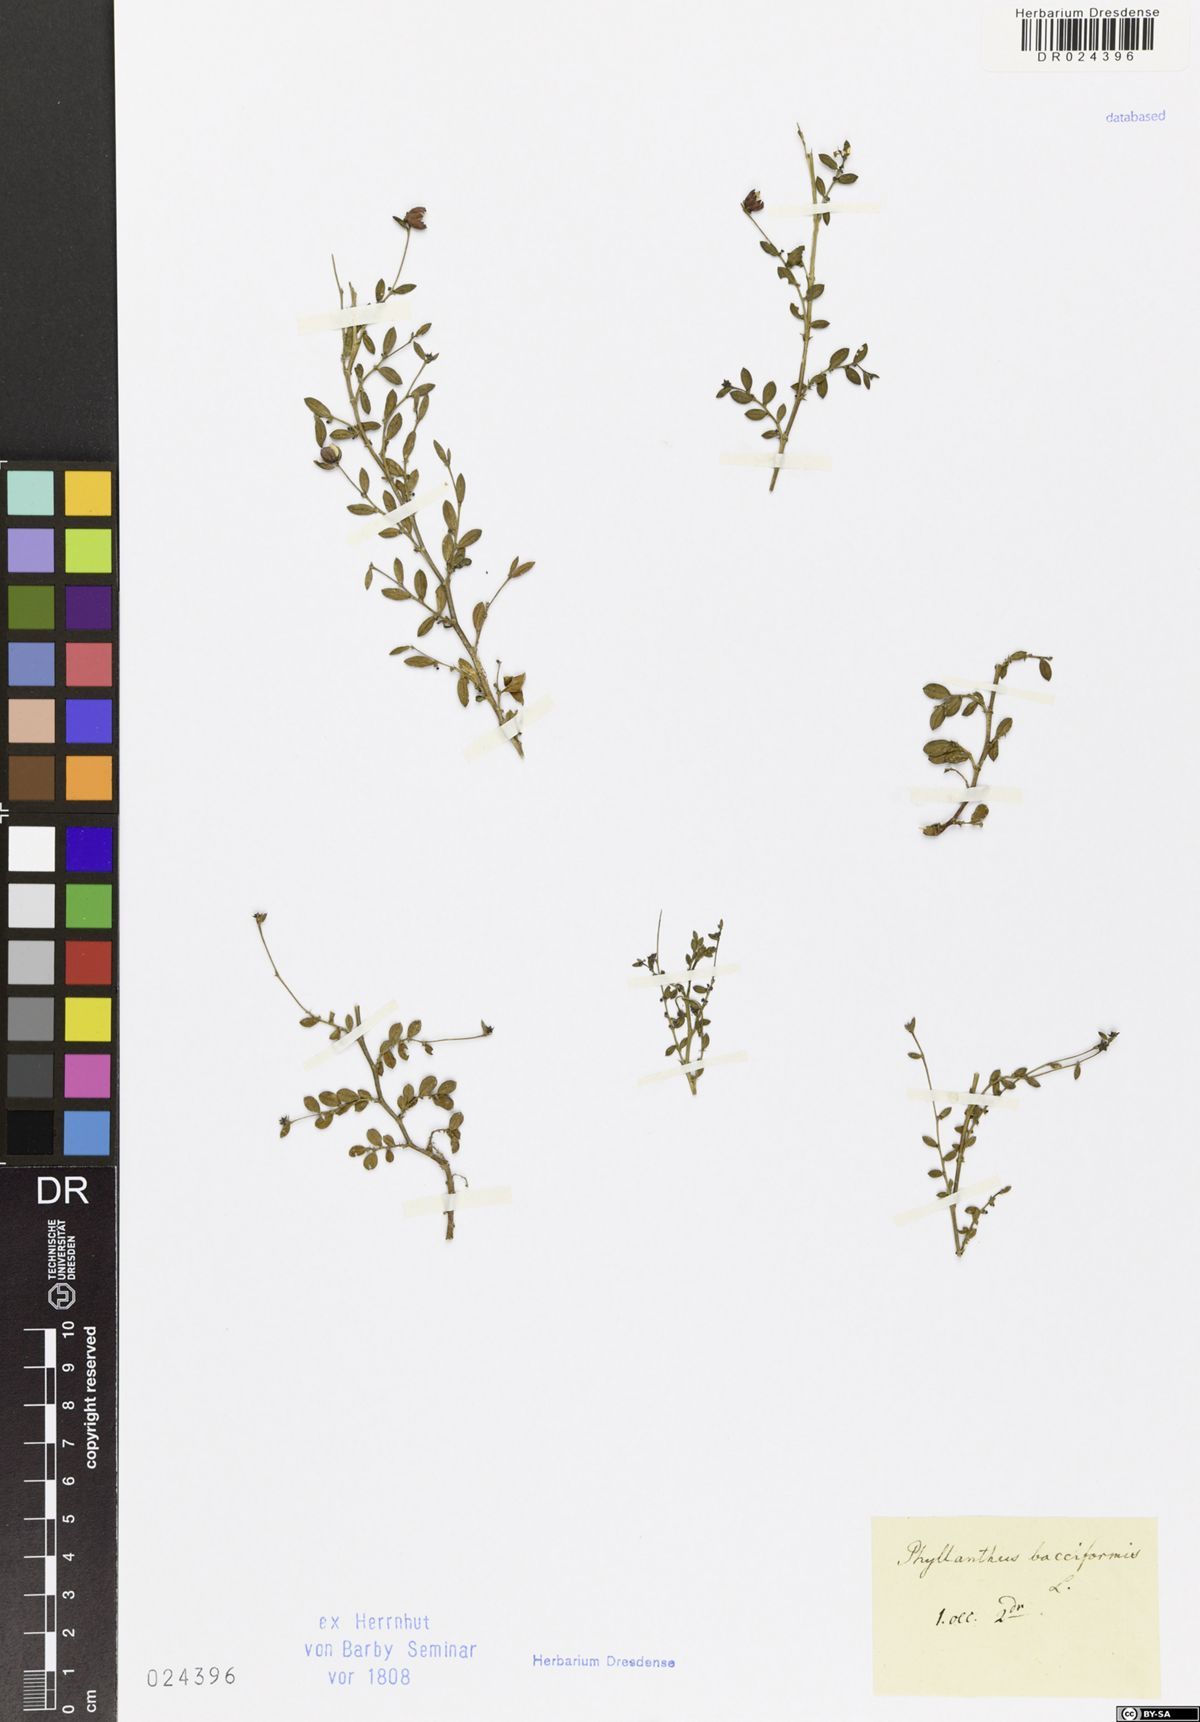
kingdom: Plantae
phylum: Tracheophyta
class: Magnoliopsida
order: Malpighiales
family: Phyllanthaceae
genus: Synostemon
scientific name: Synostemon bacciformis
